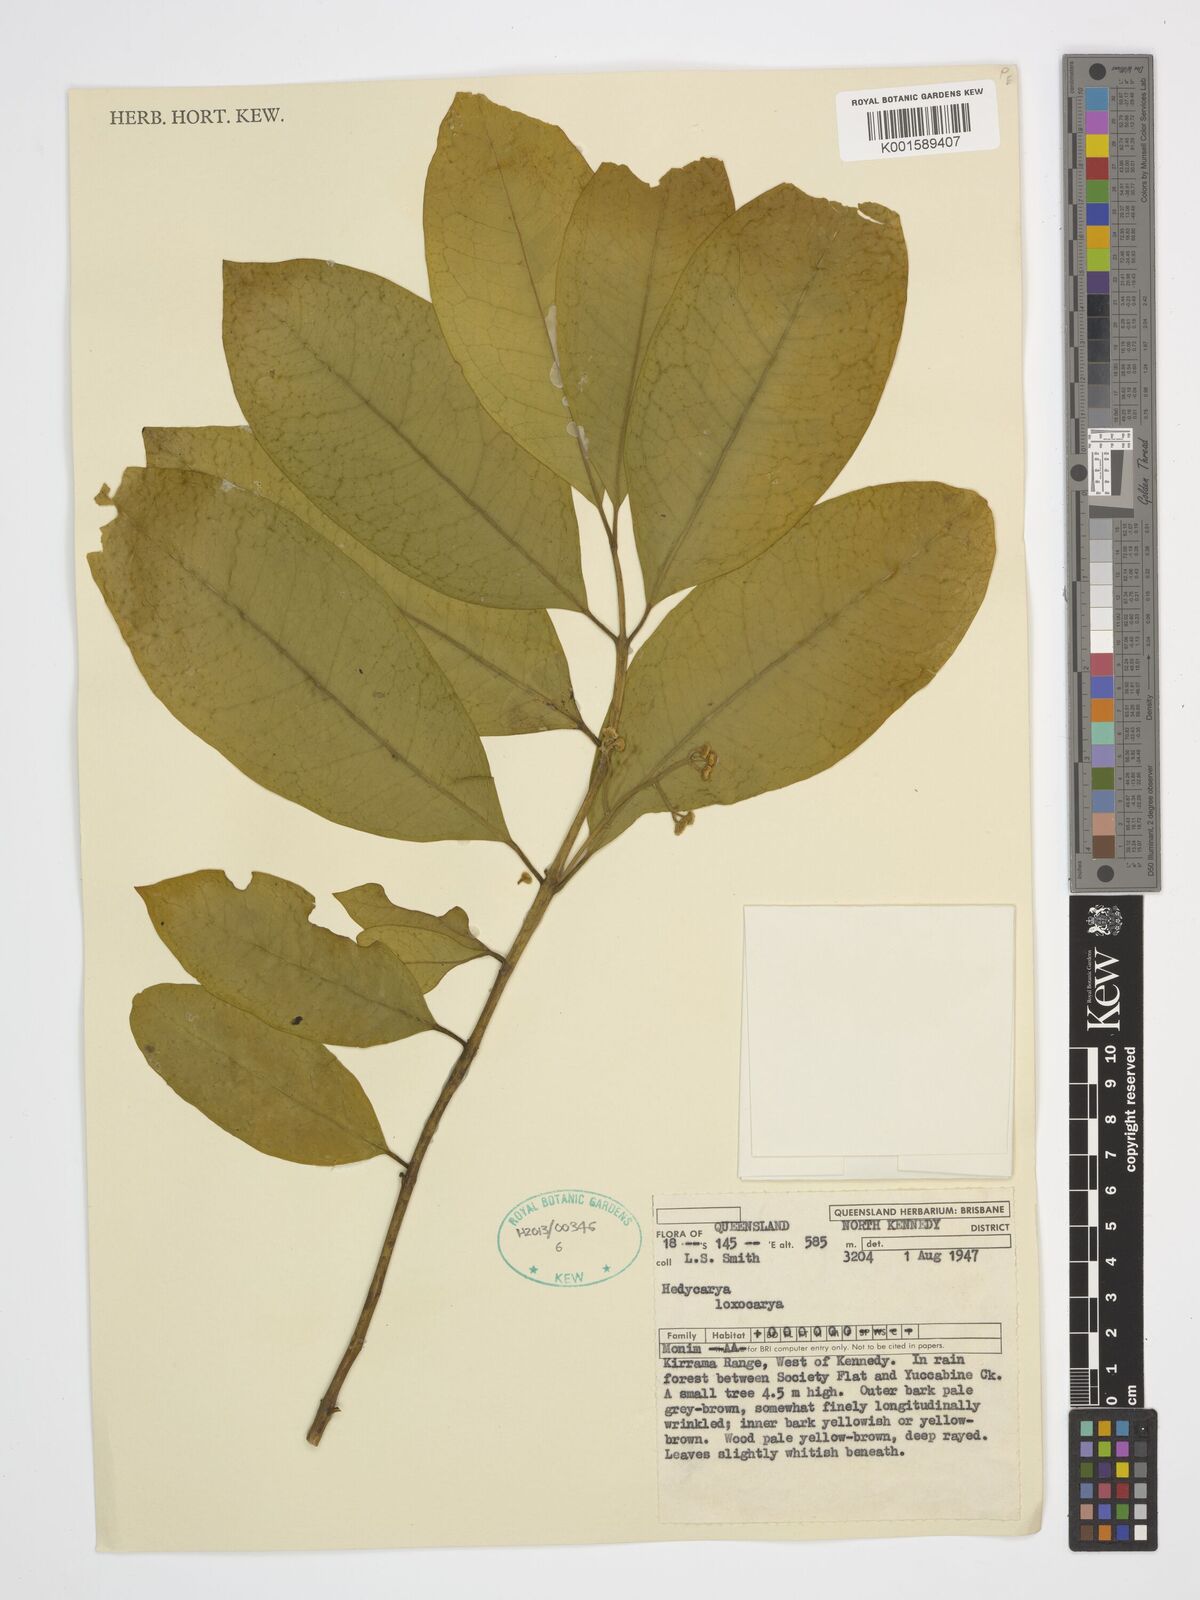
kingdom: Plantae
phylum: Tracheophyta
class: Magnoliopsida
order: Laurales
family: Monimiaceae
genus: Hedycarya
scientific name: Hedycarya loxocarya
